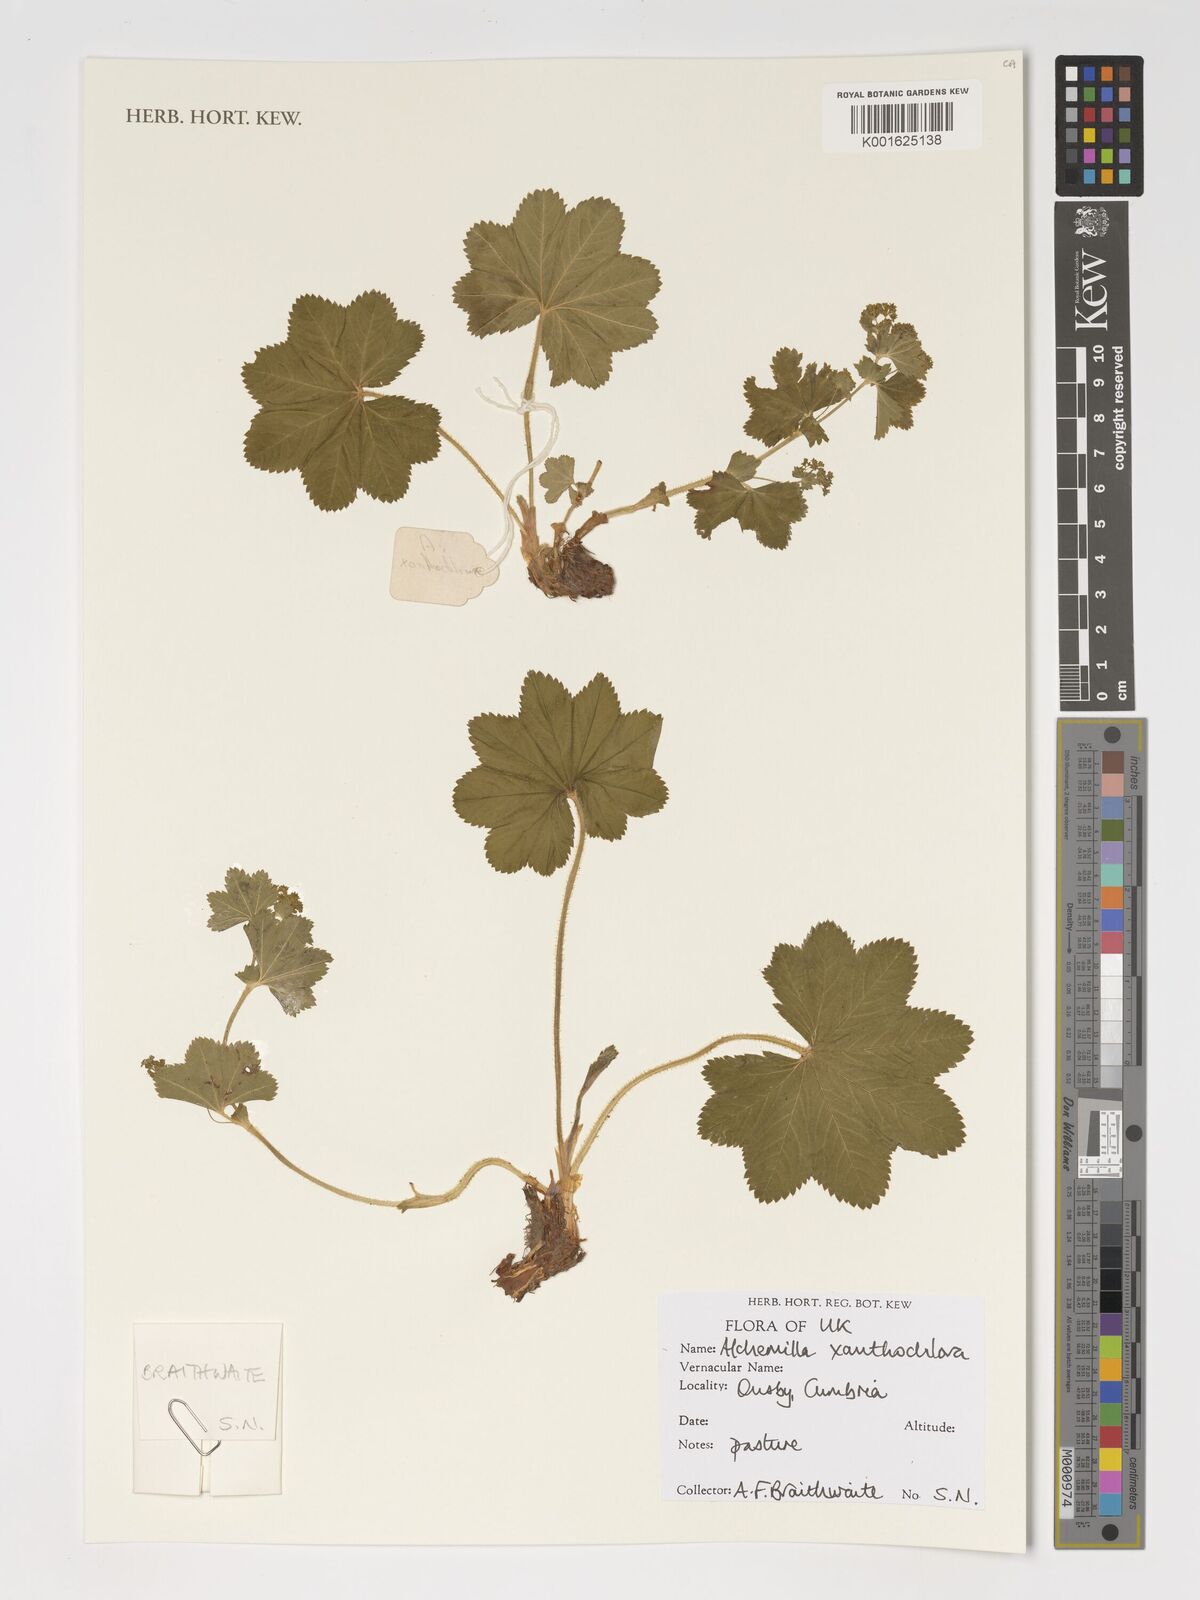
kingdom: Plantae
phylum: Tracheophyta
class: Magnoliopsida
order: Rosales
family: Rosaceae
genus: Alchemilla
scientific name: Alchemilla xanthochlora
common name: Intermediate lady's-mantle
